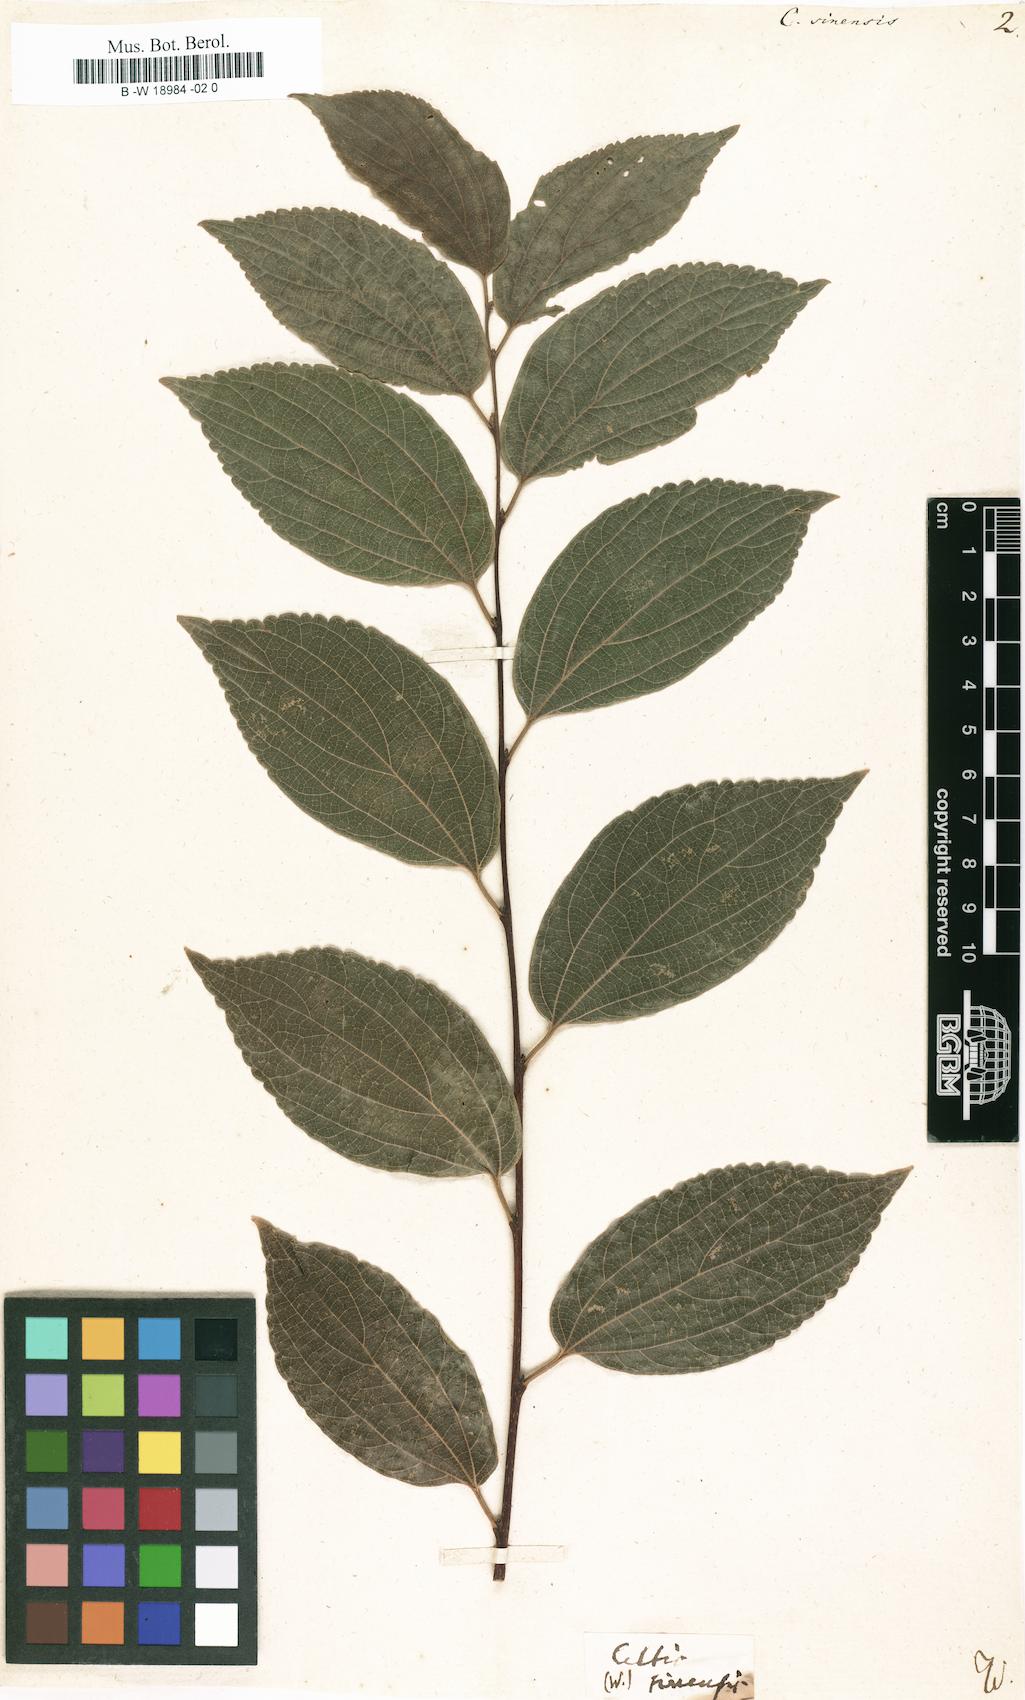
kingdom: Plantae
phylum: Tracheophyta
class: Magnoliopsida
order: Rosales
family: Cannabaceae
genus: Celtis
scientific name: Celtis sinensis
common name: Chinese hackberry
